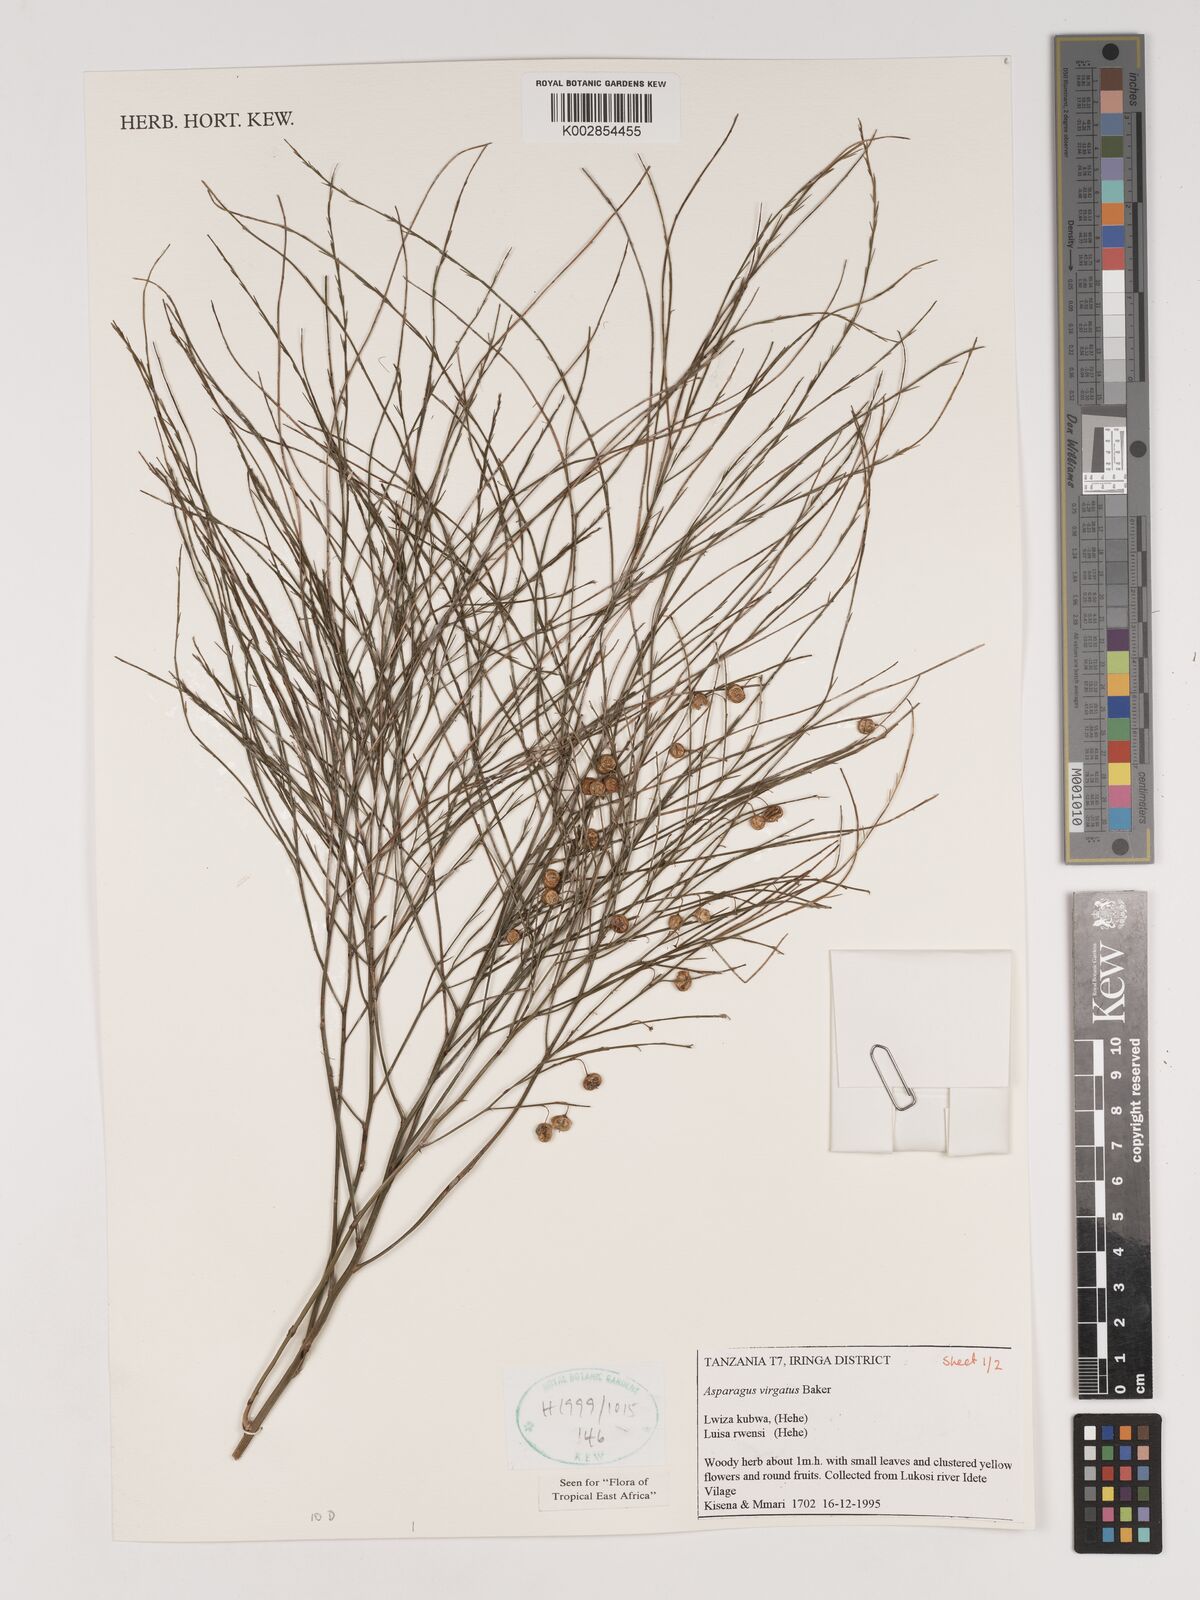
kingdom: Plantae
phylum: Tracheophyta
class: Liliopsida
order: Asparagales
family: Asparagaceae
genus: Asparagus
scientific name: Asparagus virgatus
